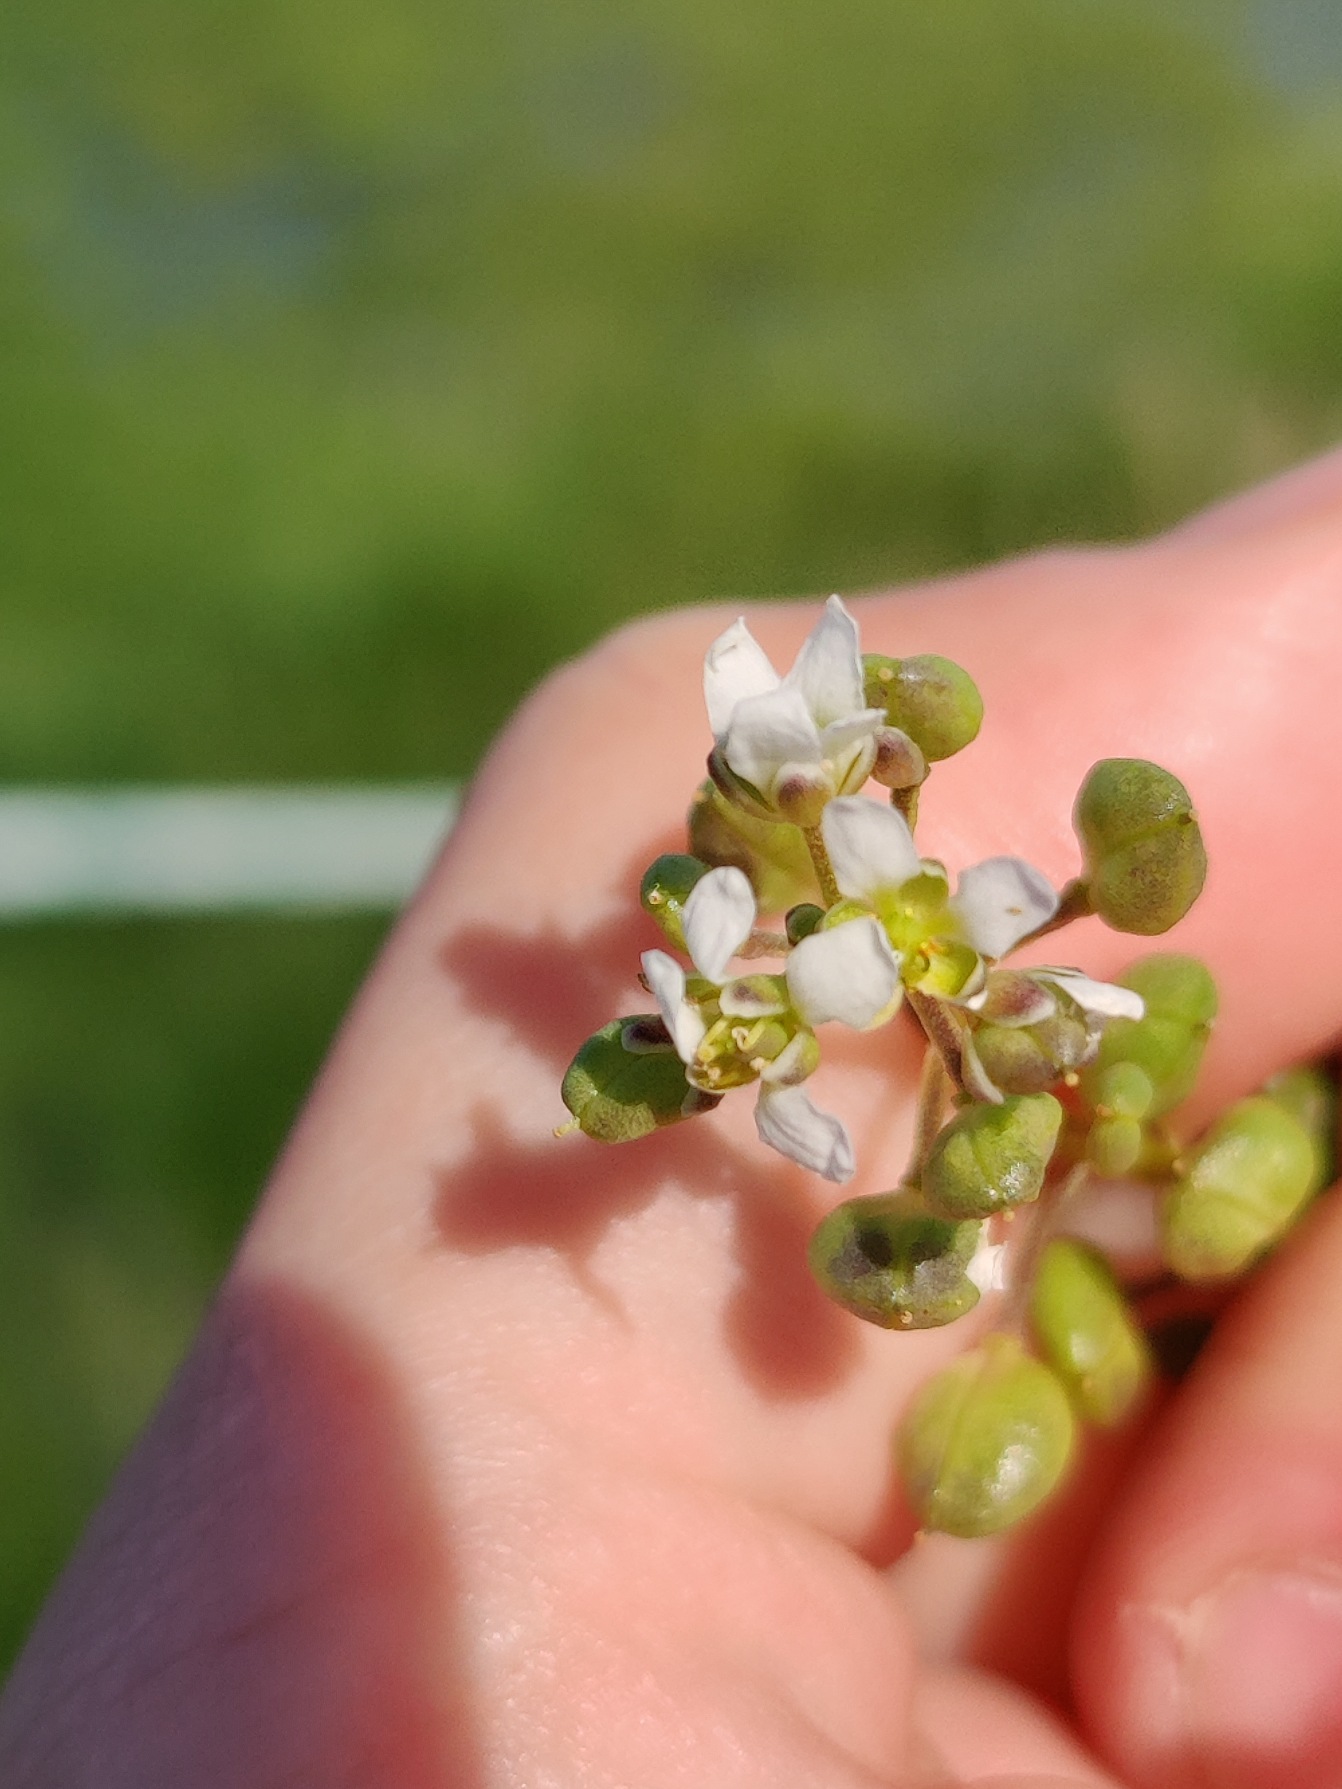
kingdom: Plantae
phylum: Tracheophyta
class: Magnoliopsida
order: Brassicales
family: Brassicaceae
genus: Cochlearia
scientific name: Cochlearia
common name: Kokleareslægten
